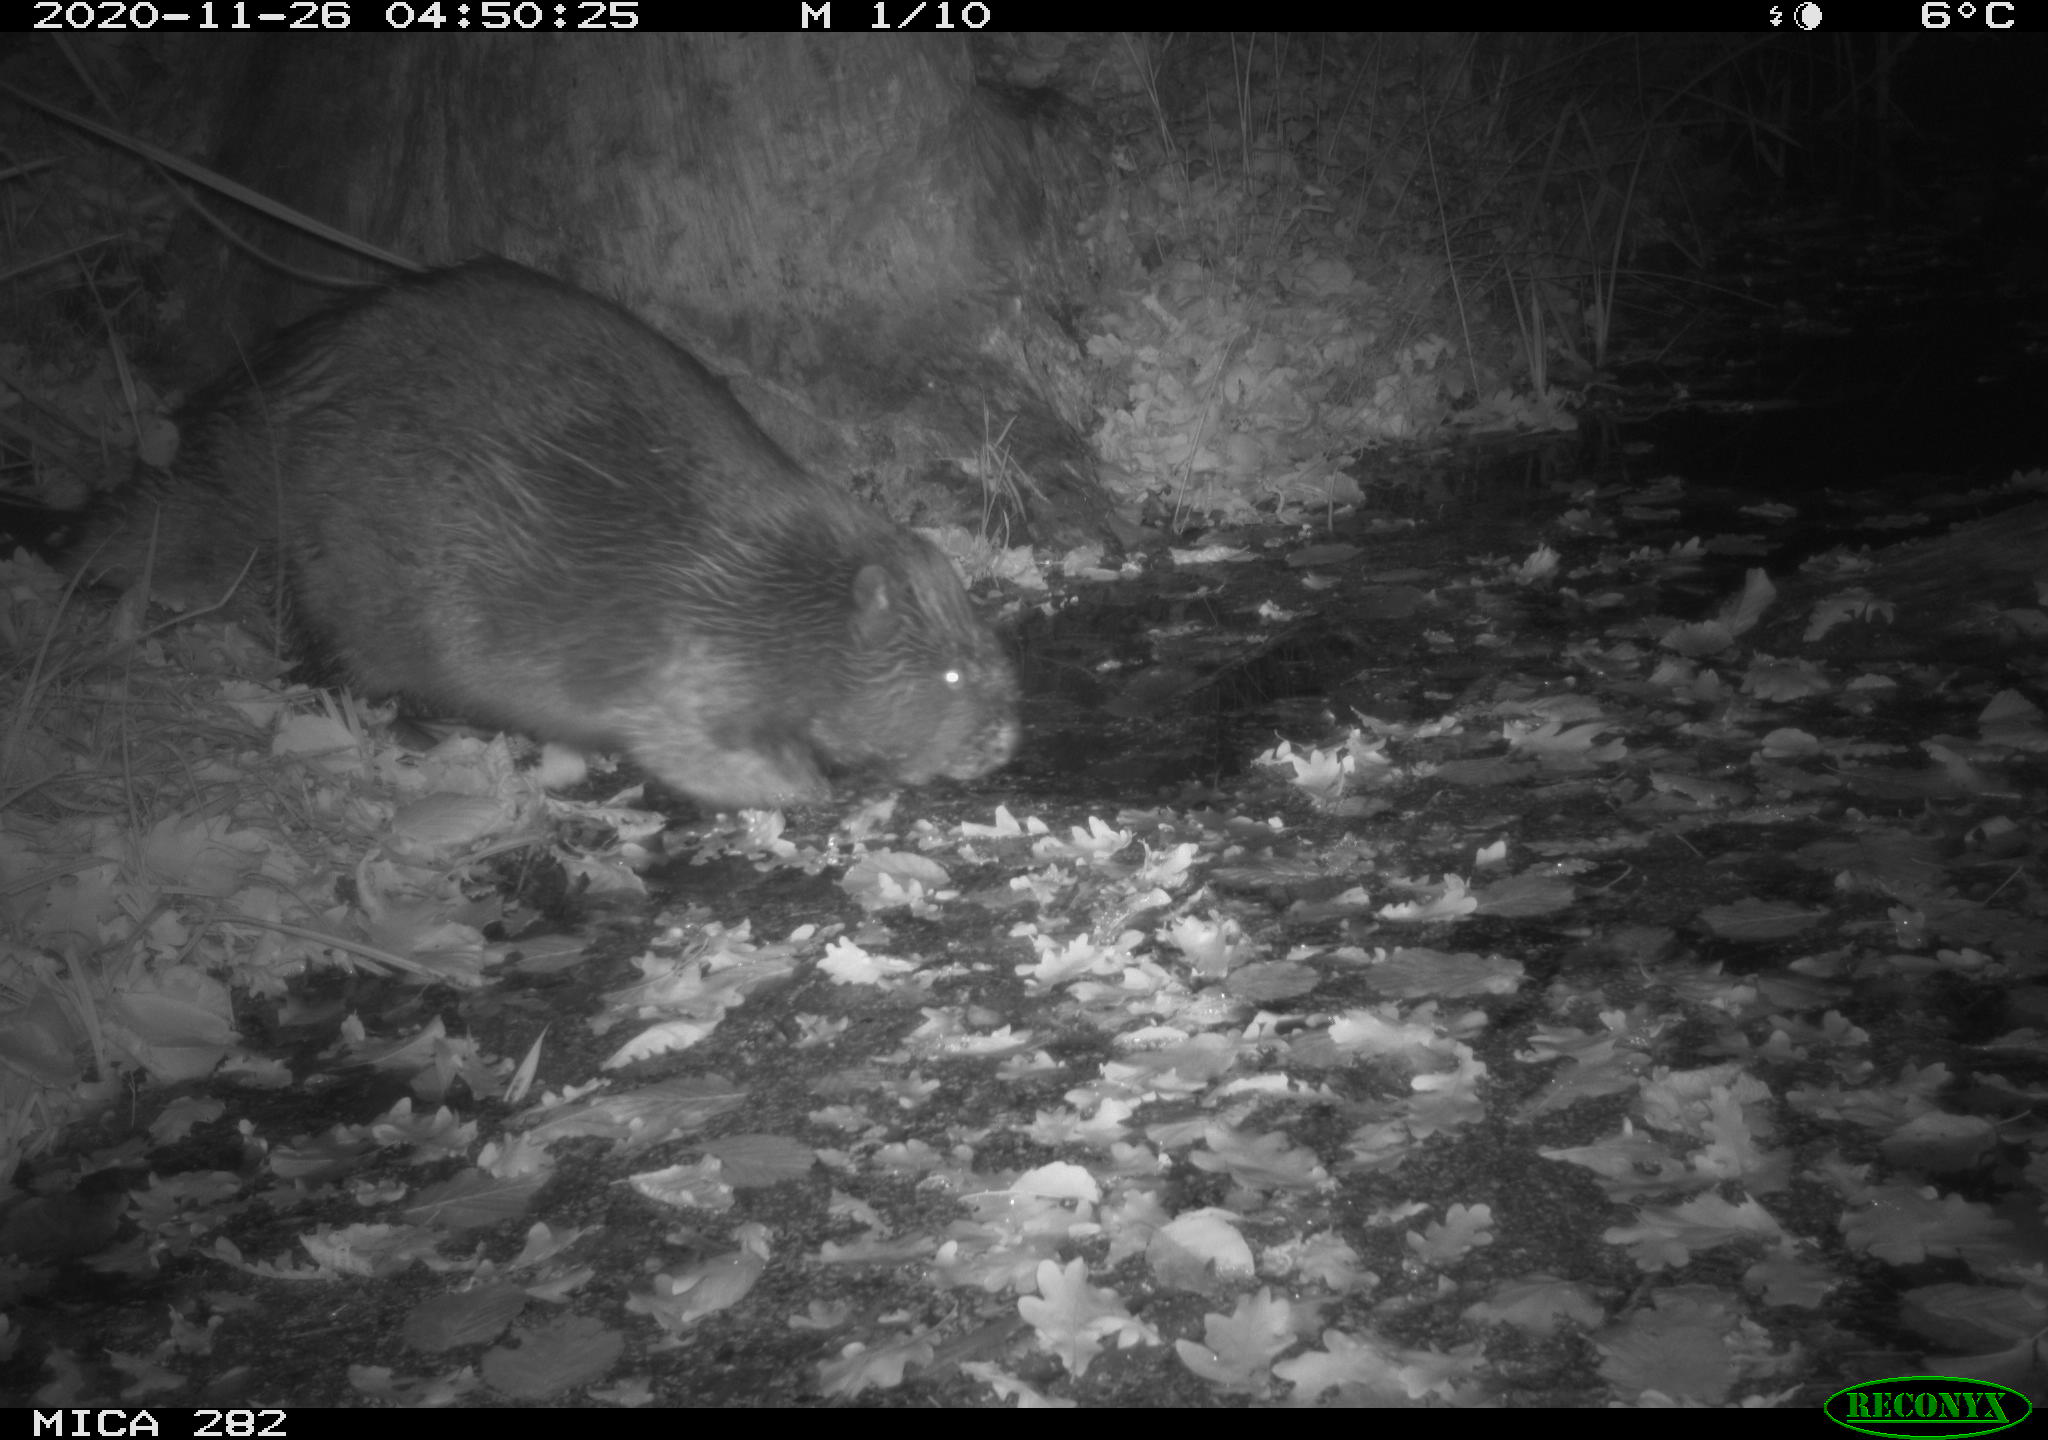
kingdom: Animalia
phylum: Chordata
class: Mammalia
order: Rodentia
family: Castoridae
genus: Castor
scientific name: Castor fiber
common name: Eurasian beaver
